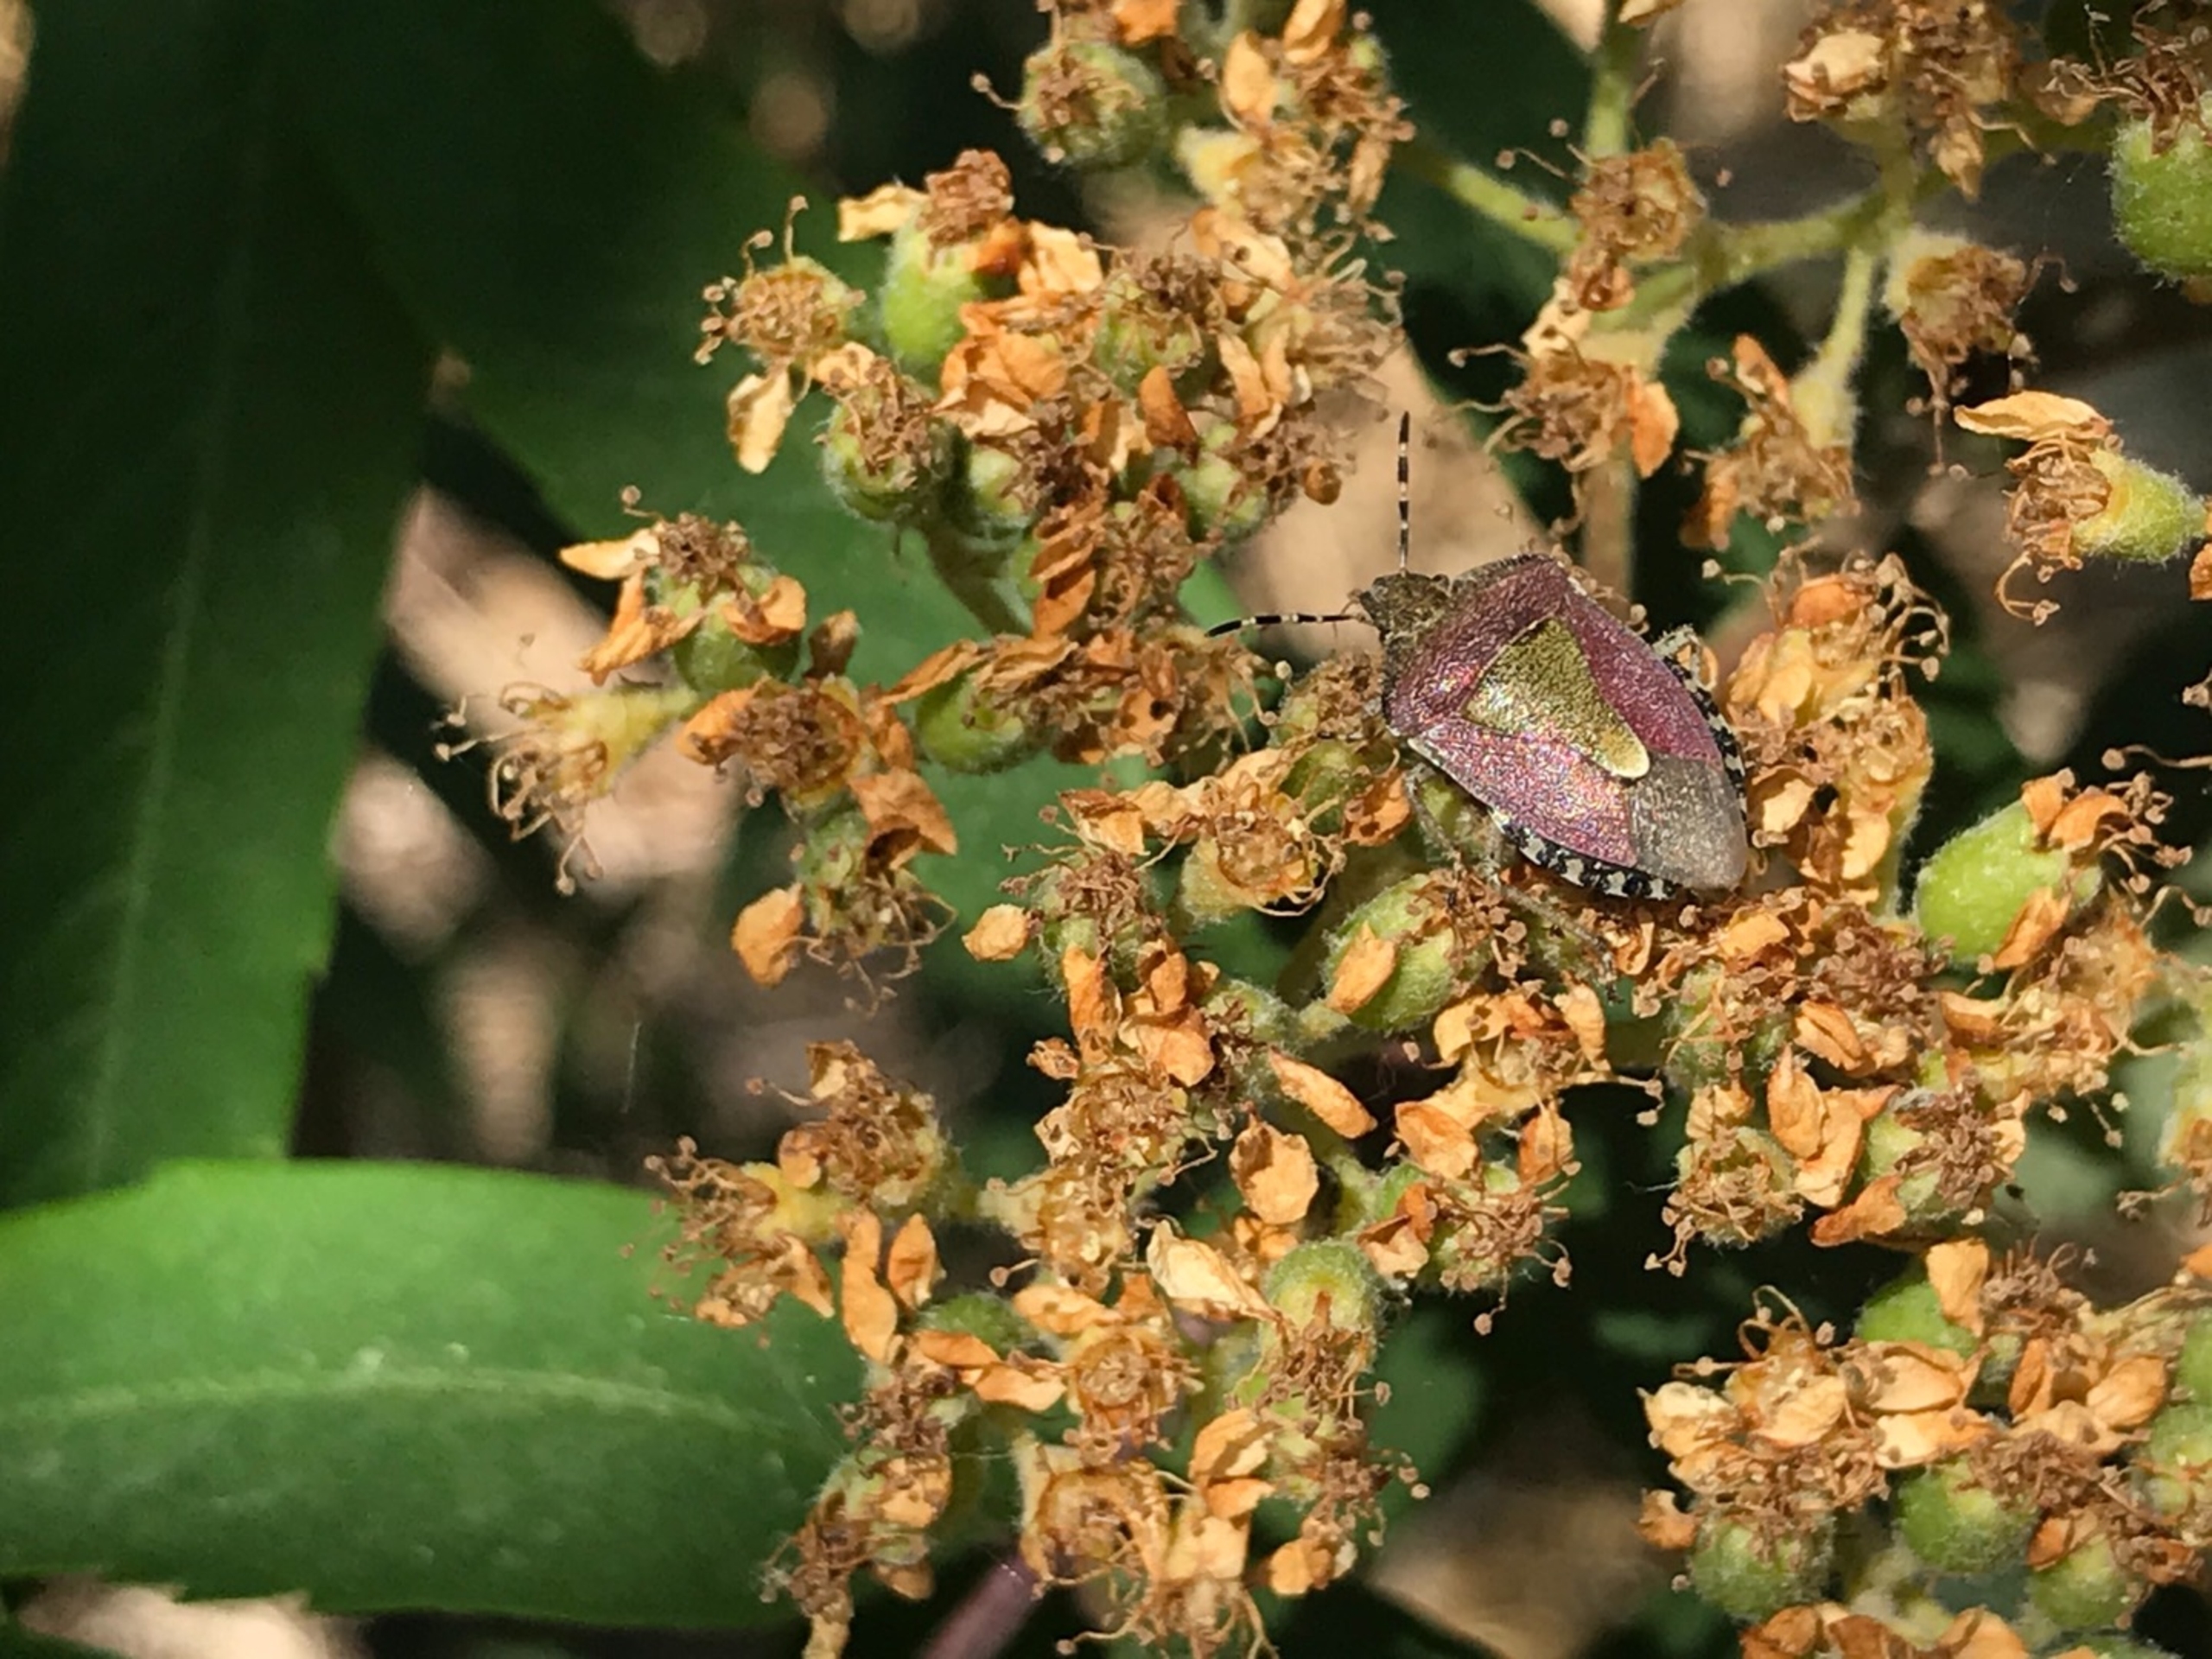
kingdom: Animalia
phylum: Arthropoda
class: Insecta
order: Hemiptera
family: Pentatomidae
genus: Dolycoris
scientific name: Dolycoris baccarum
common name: Almindelig bærtæge
